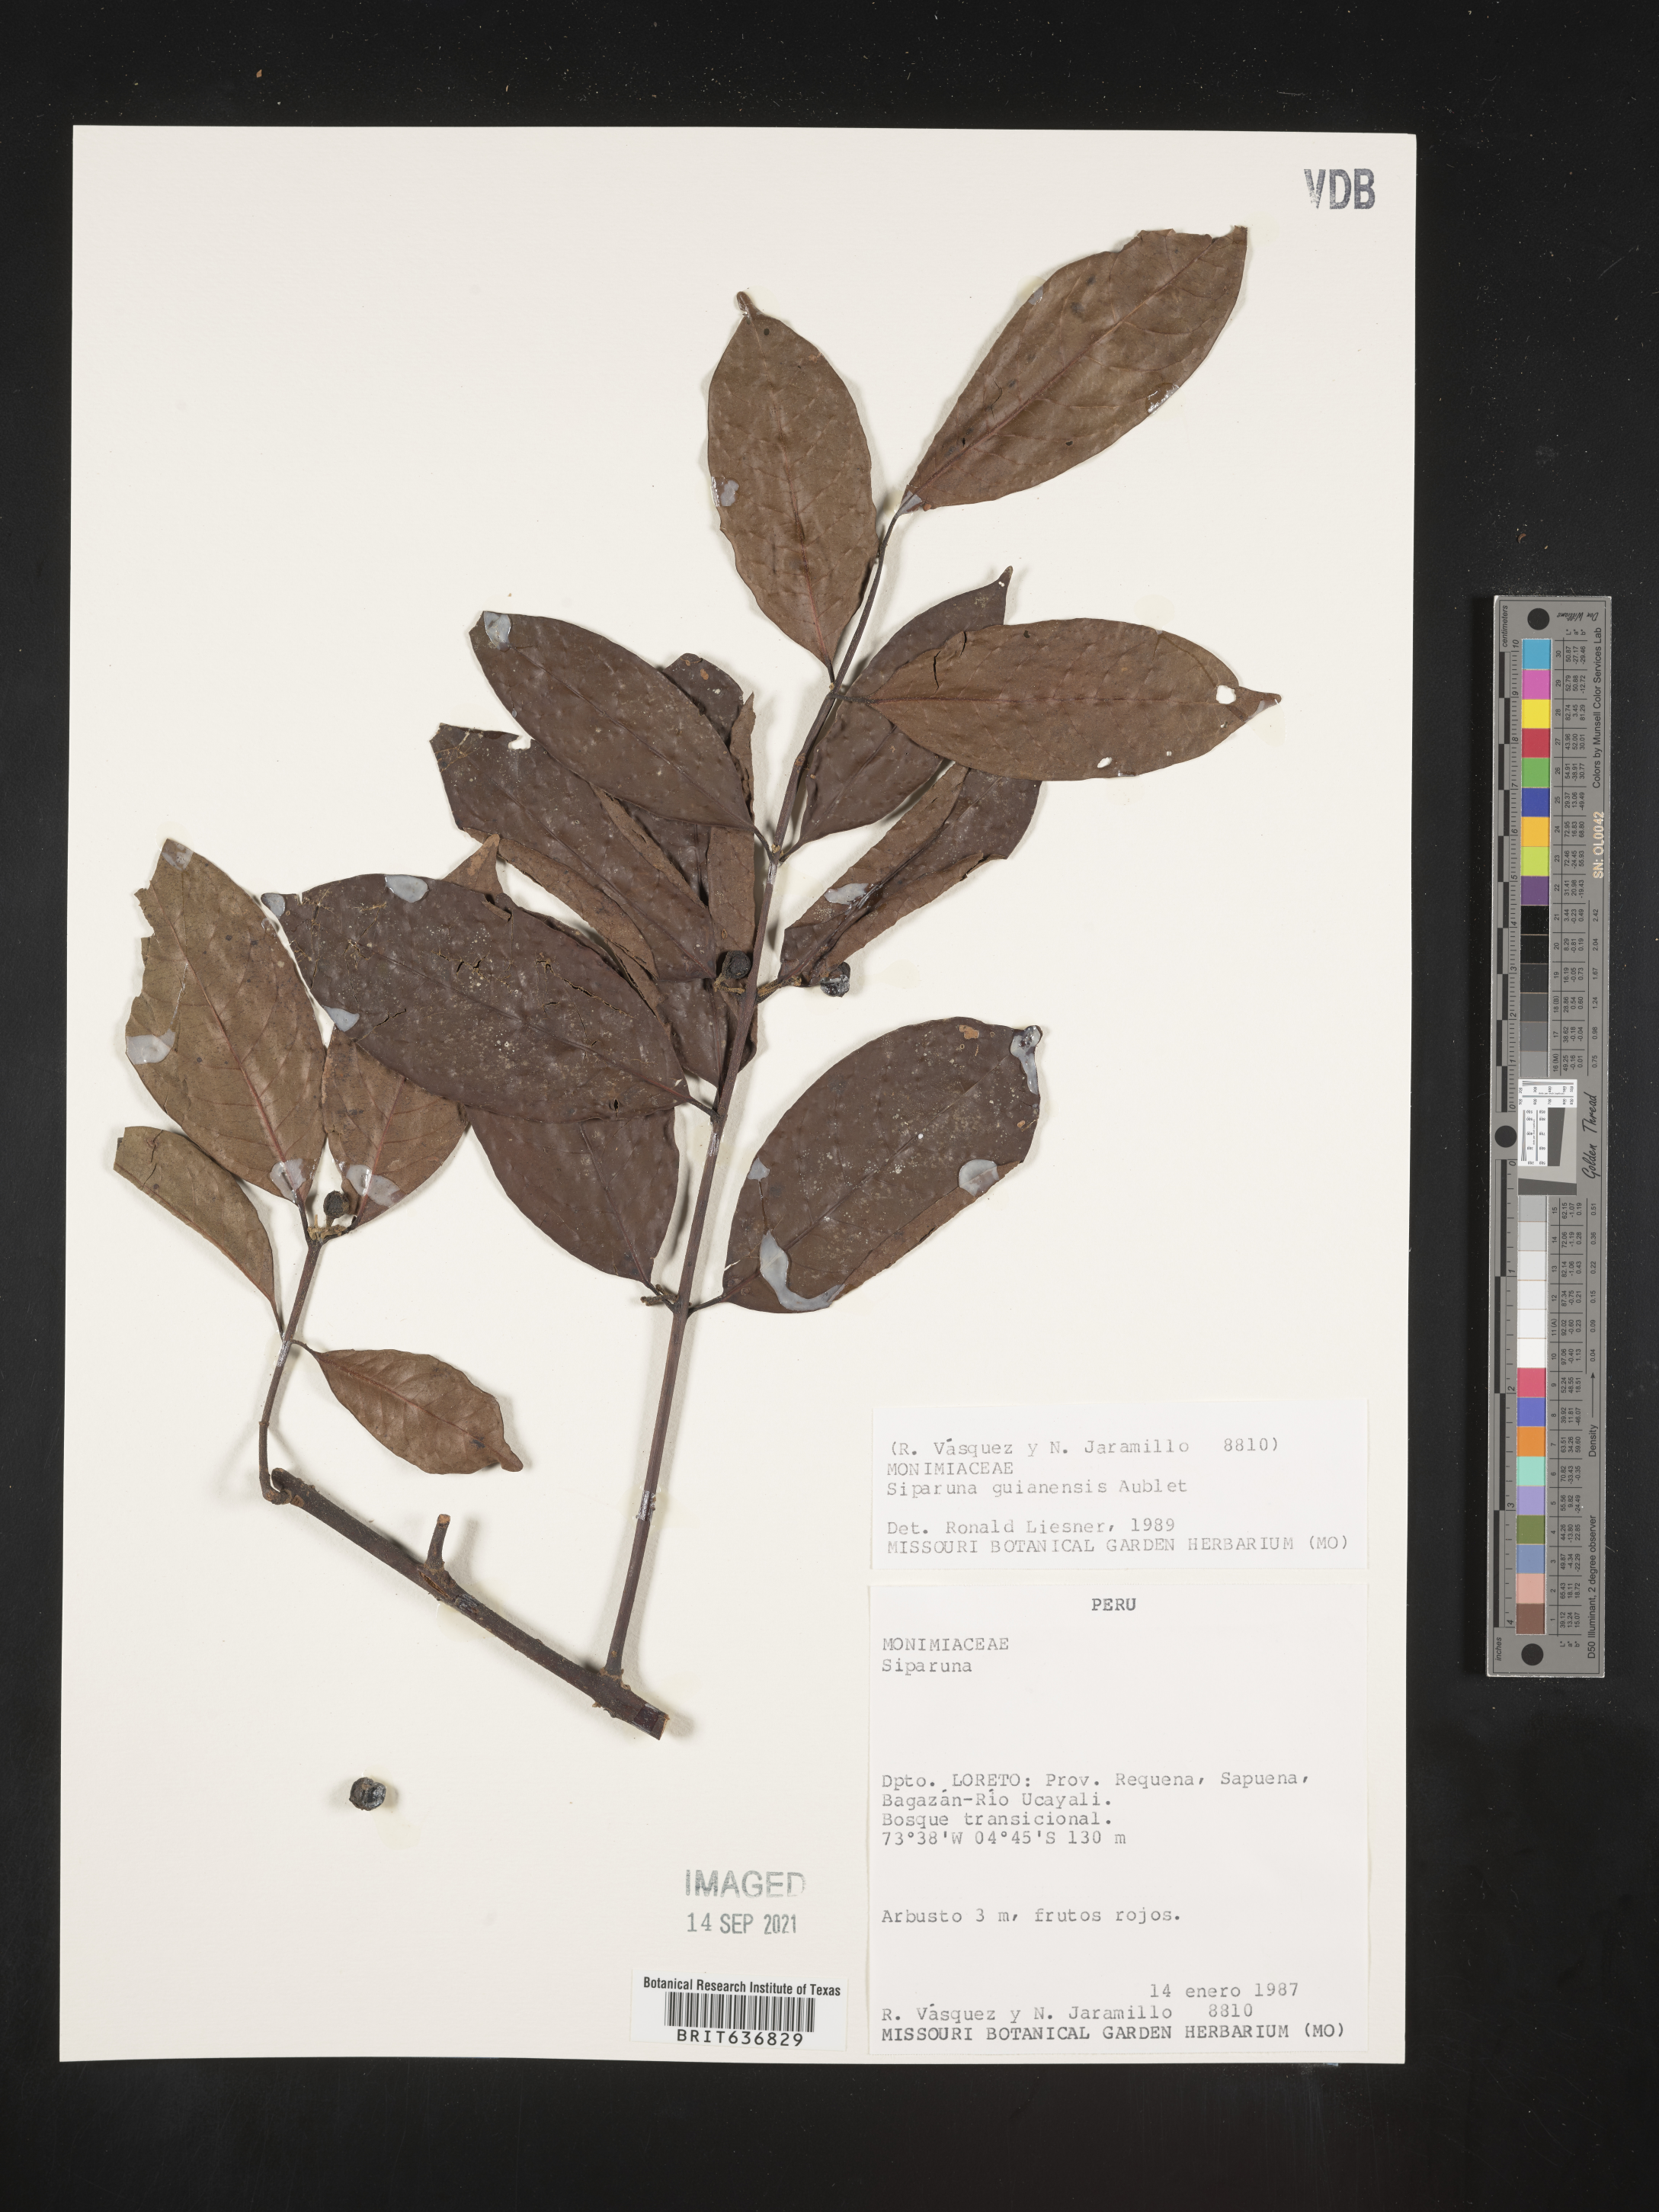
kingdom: Plantae
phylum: Tracheophyta
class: Magnoliopsida
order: Laurales
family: Siparunaceae
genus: Siparuna
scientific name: Siparuna
